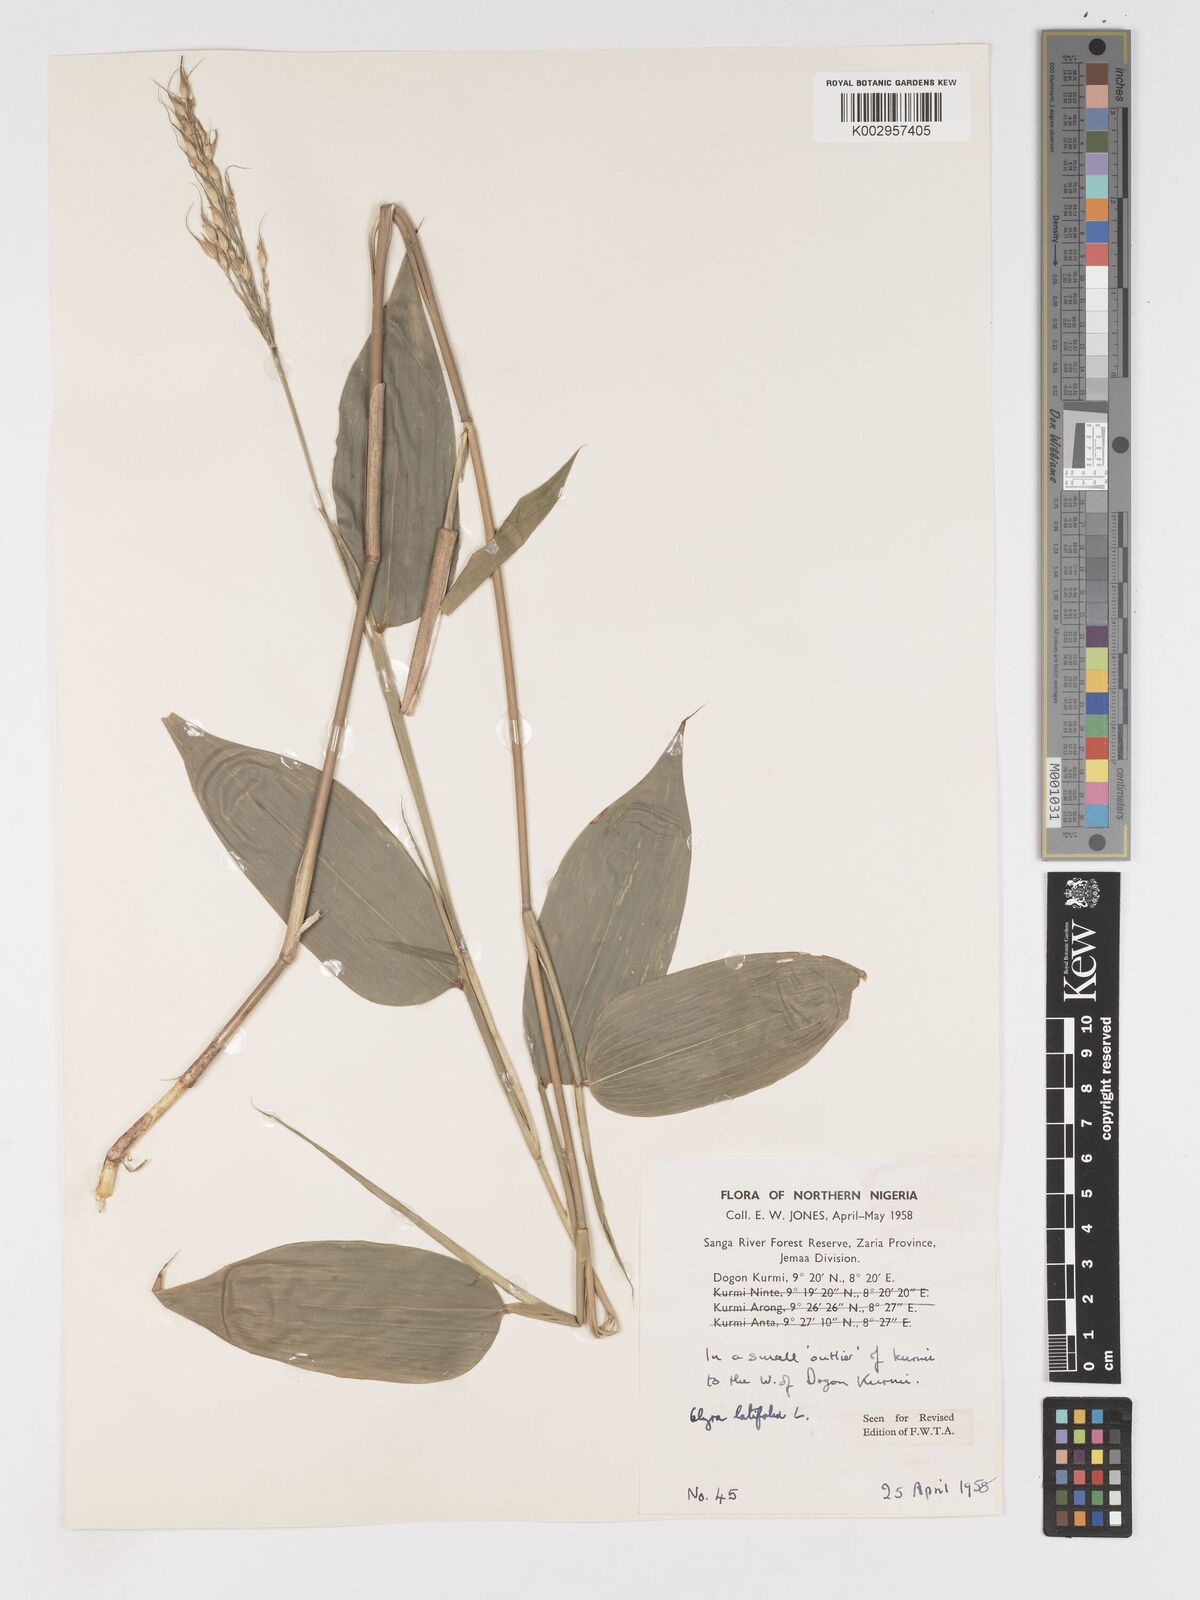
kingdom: Plantae
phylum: Tracheophyta
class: Liliopsida
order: Poales
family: Poaceae
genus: Olyra
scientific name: Olyra latifolia
